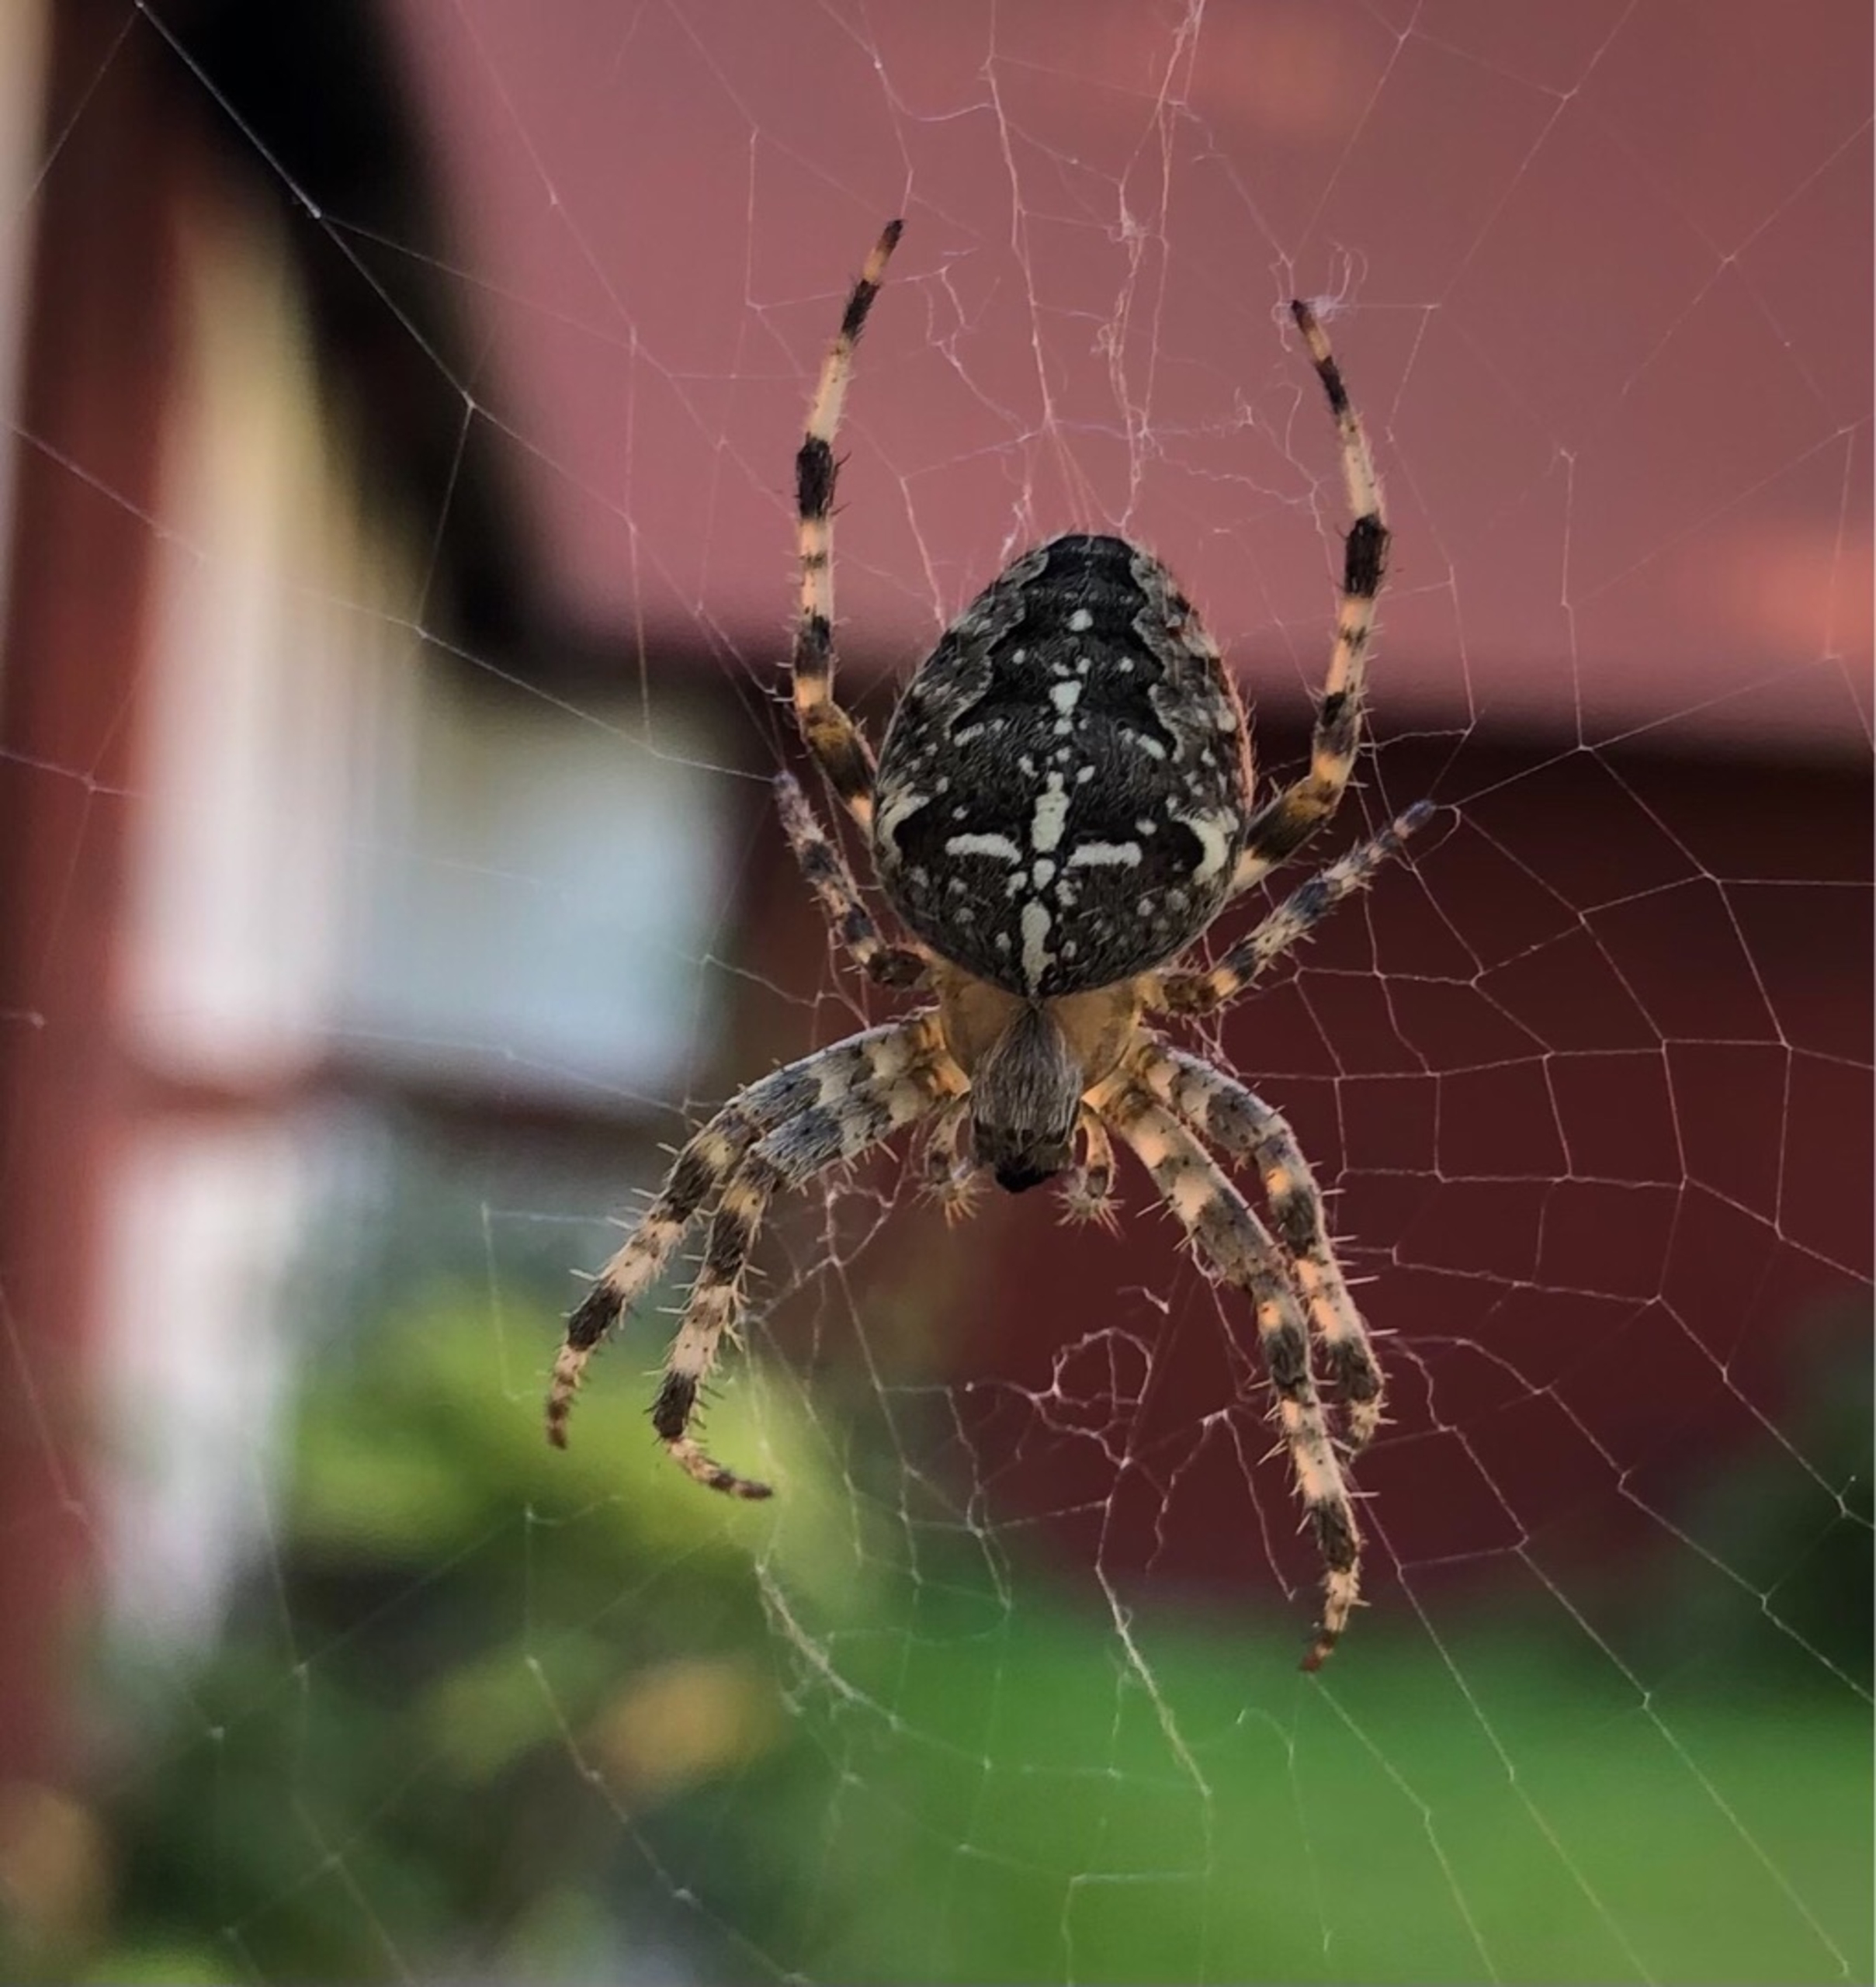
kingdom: Animalia
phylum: Arthropoda
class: Arachnida
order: Araneae
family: Araneidae
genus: Araneus
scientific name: Araneus diadematus
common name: Korsedderkop
